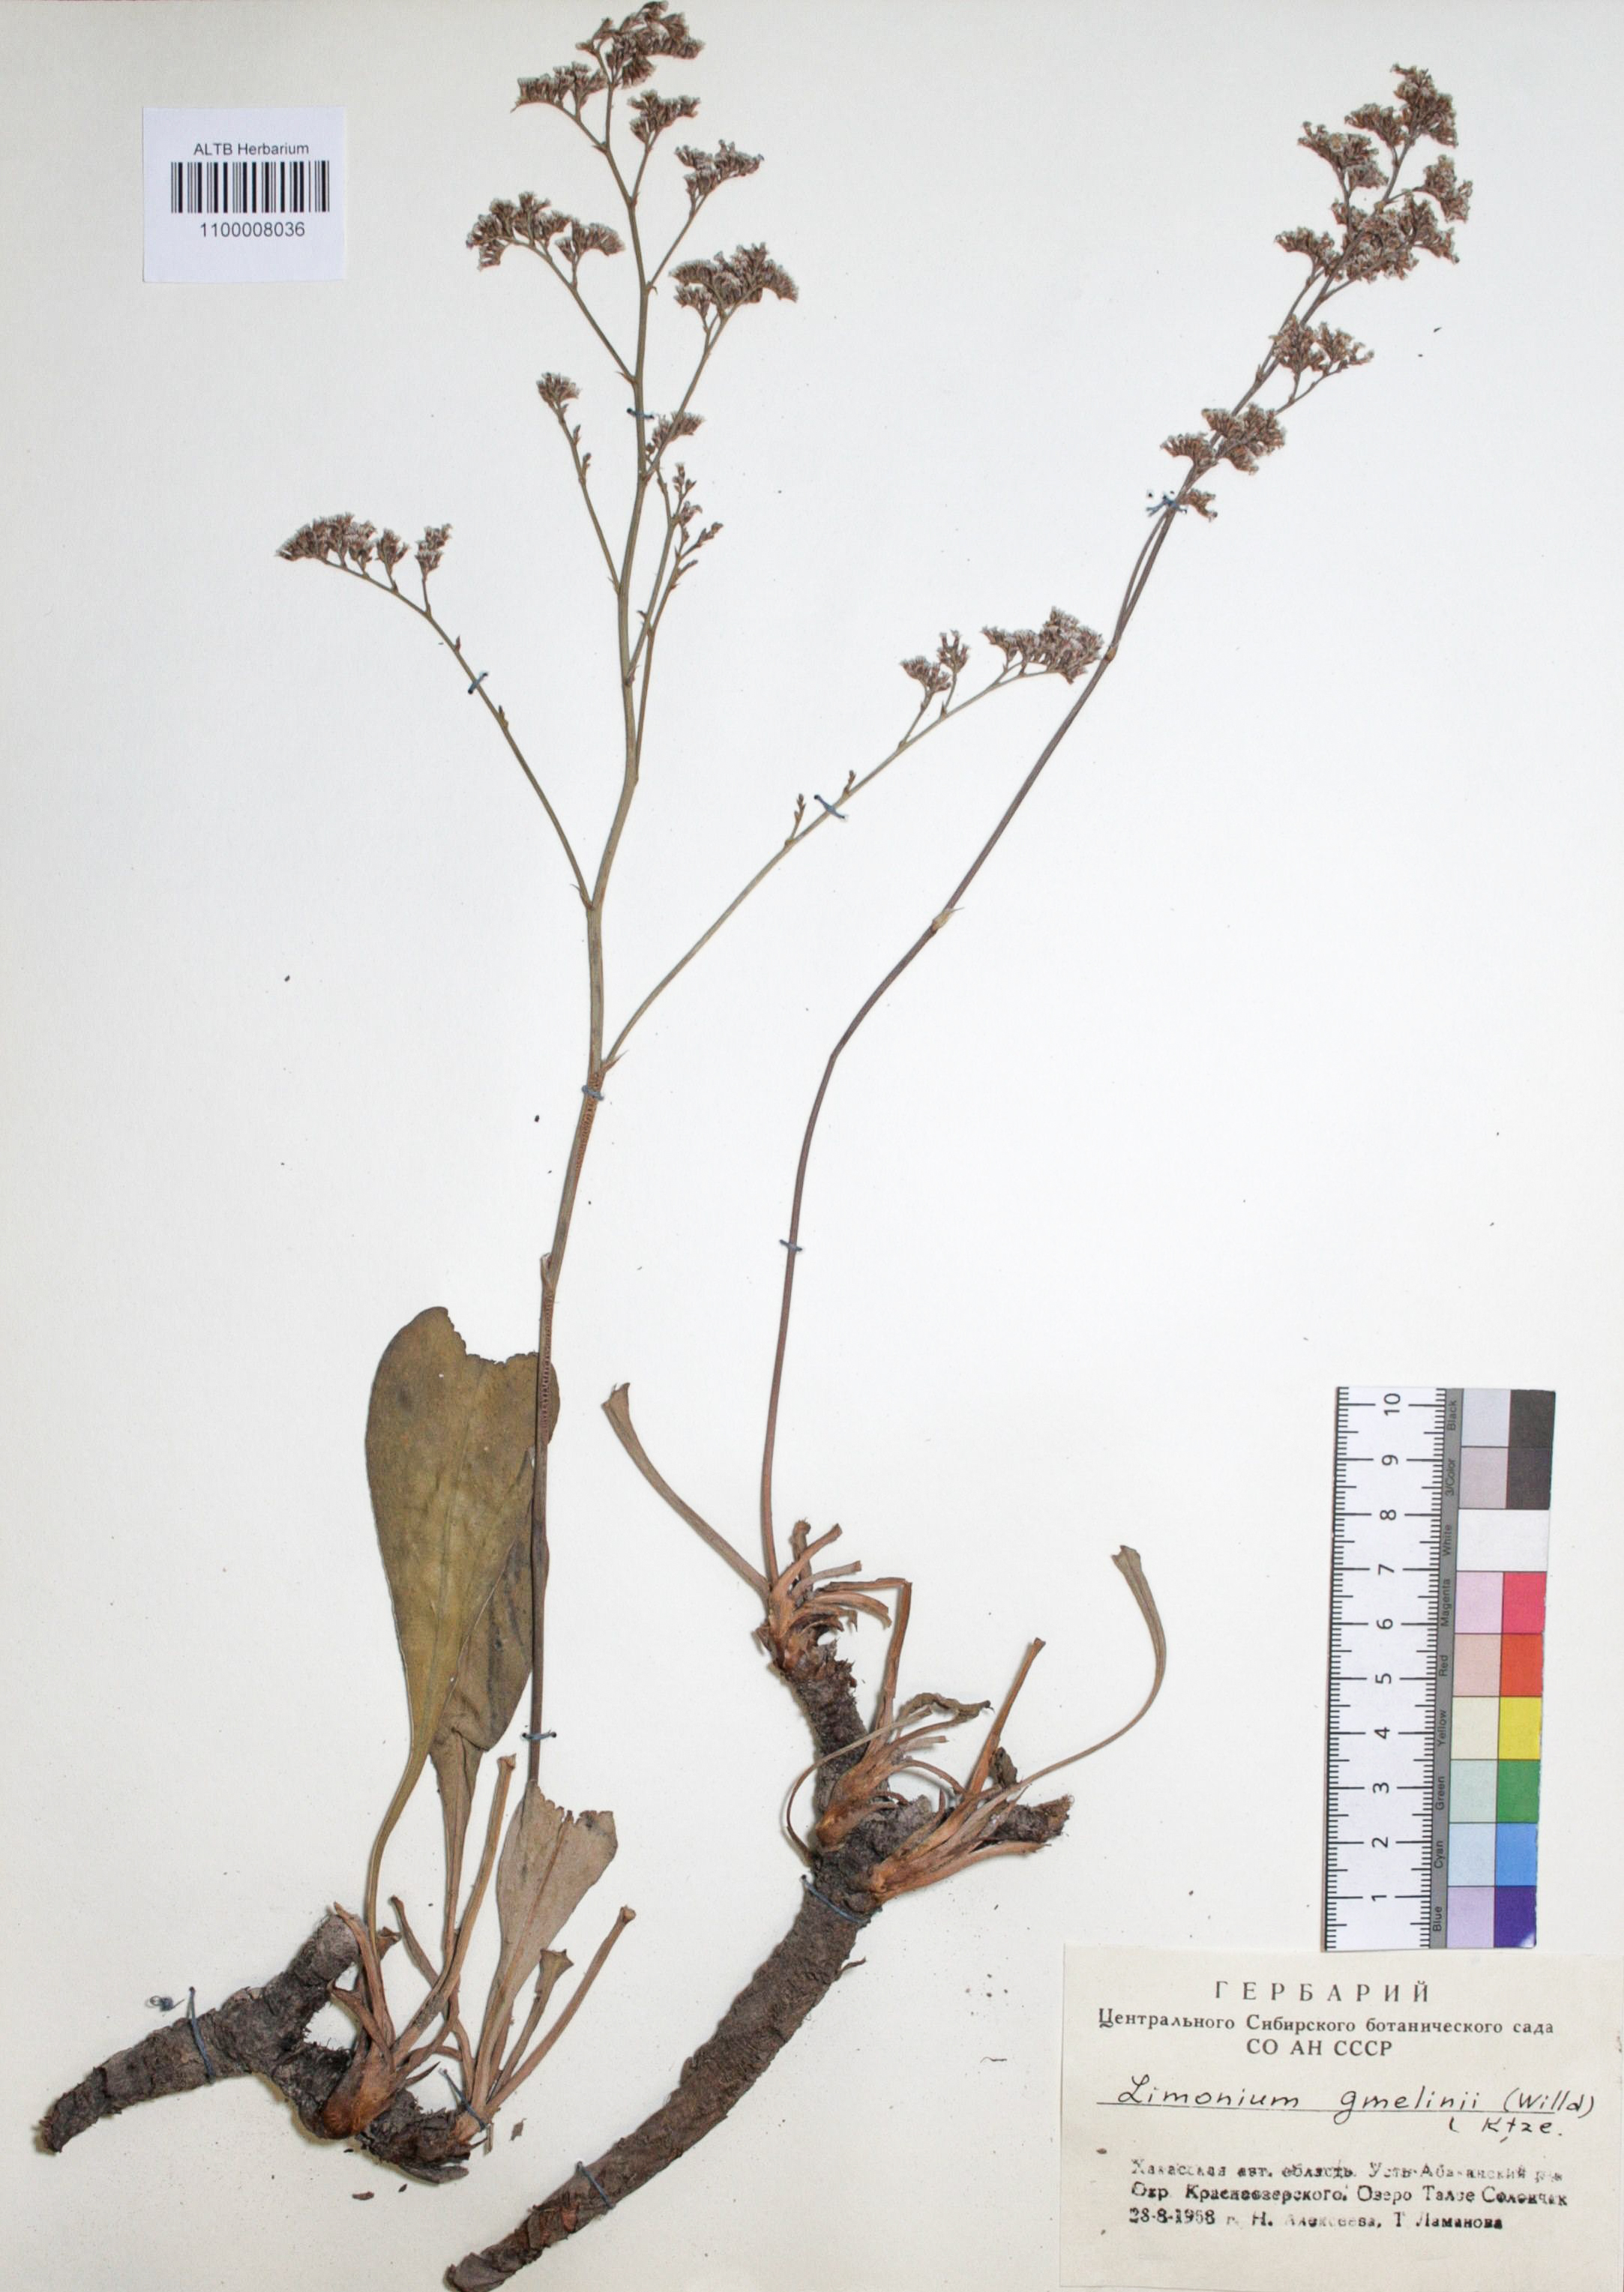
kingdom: Plantae
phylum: Tracheophyta
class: Magnoliopsida
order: Caryophyllales
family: Plumbaginaceae
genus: Limonium
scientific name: Limonium gmelini
